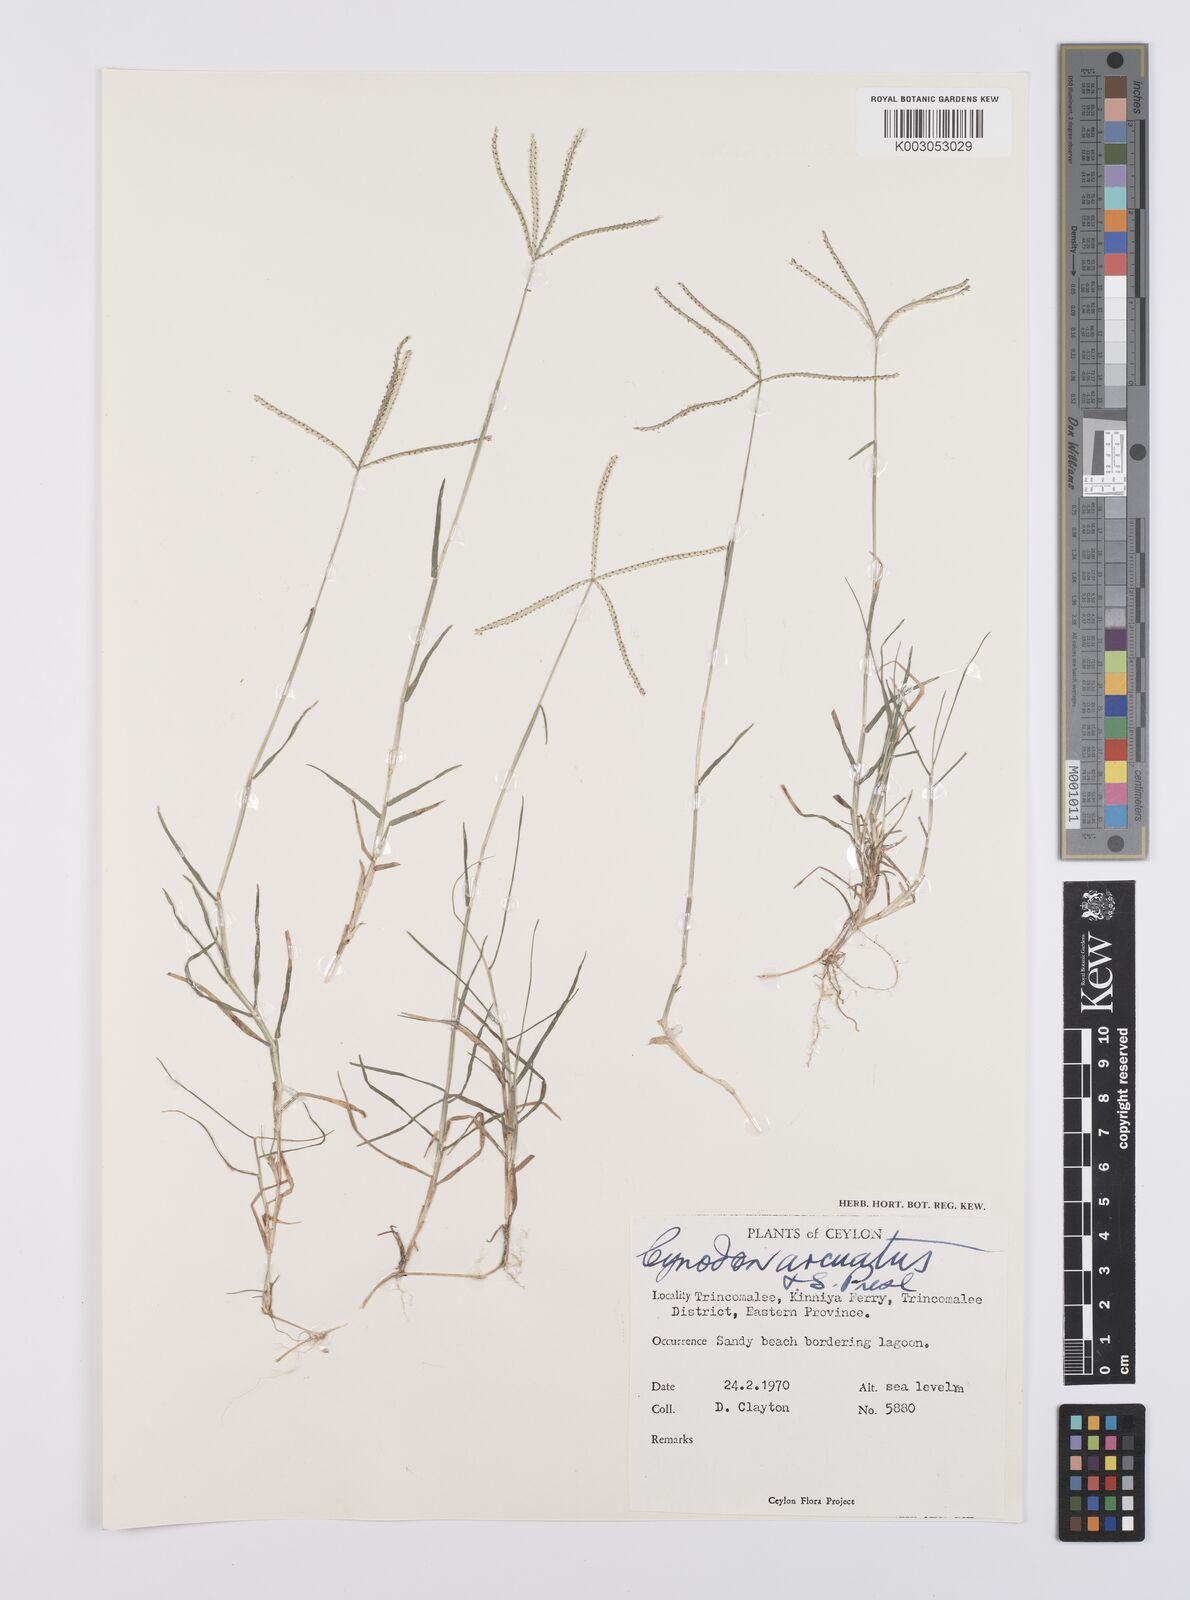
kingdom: Plantae
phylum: Tracheophyta
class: Liliopsida
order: Poales
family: Poaceae
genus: Cynodon
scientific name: Cynodon radiatus
